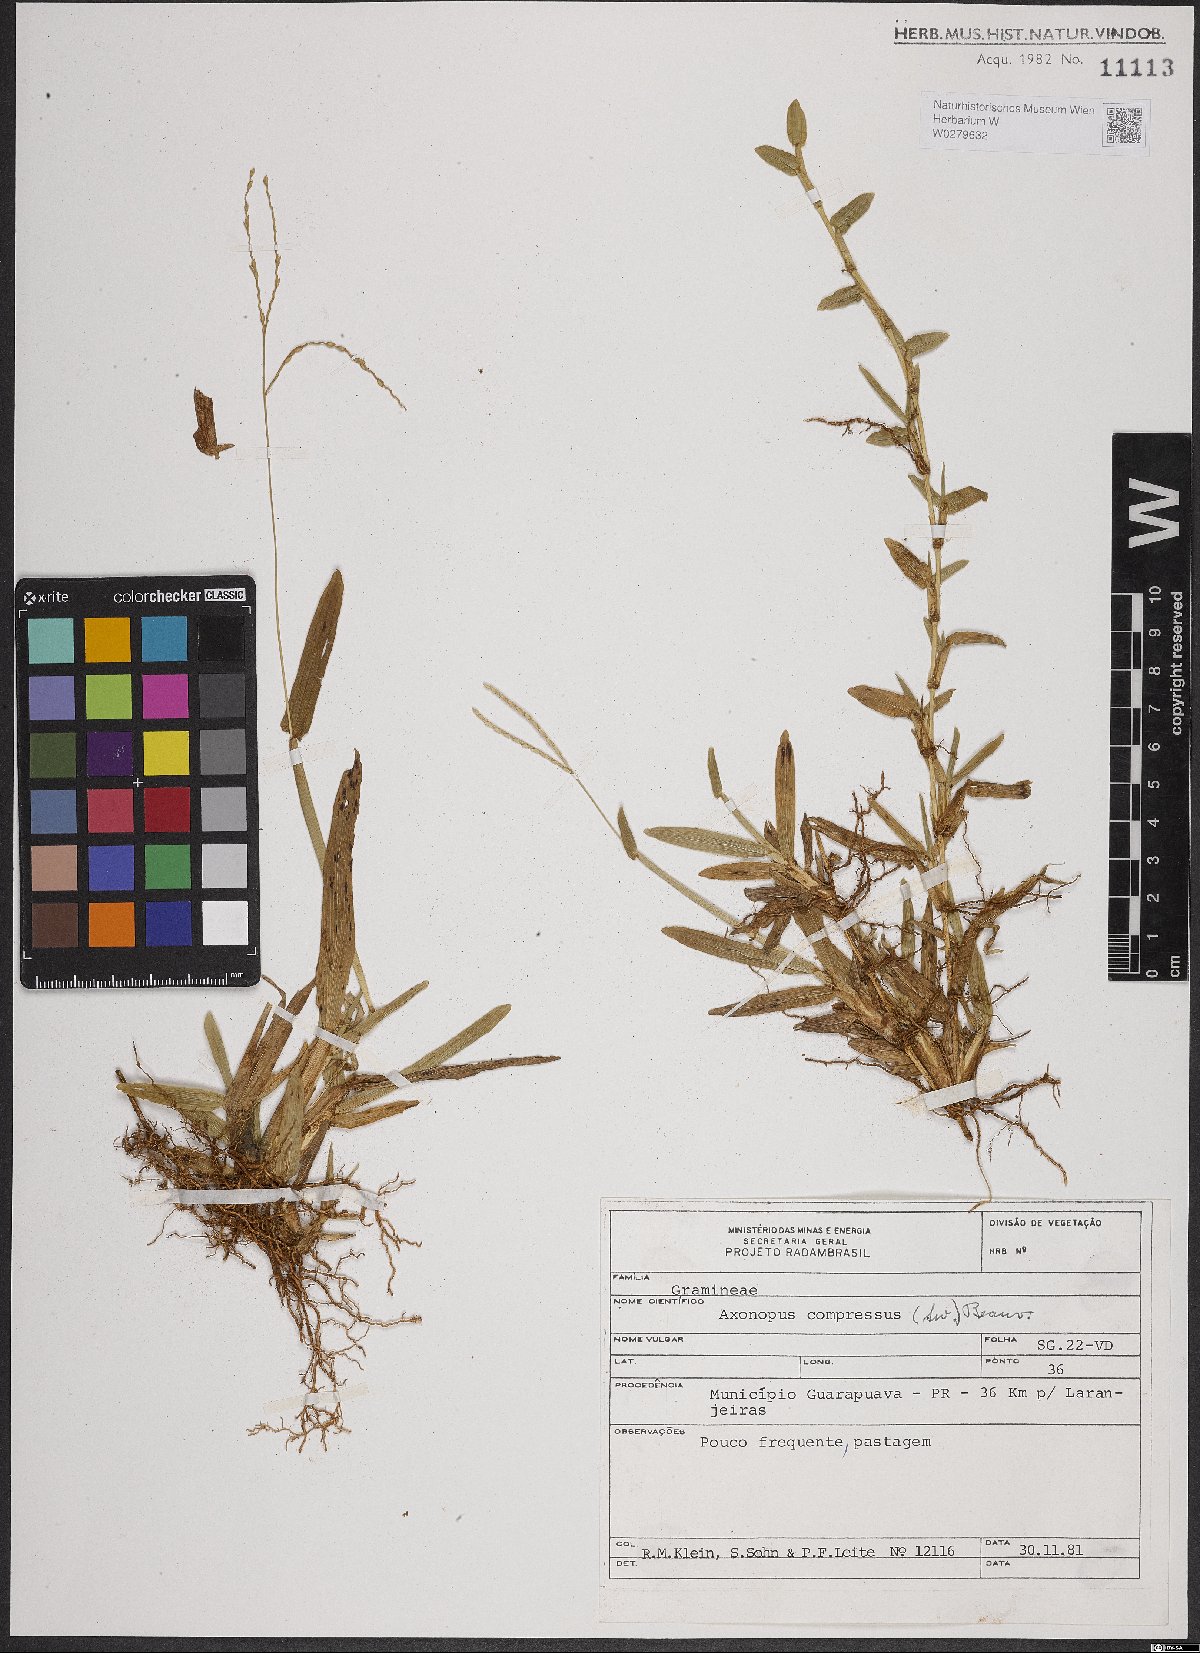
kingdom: Plantae
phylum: Tracheophyta
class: Liliopsida
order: Poales
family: Poaceae
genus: Axonopus
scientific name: Axonopus compressus
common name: American carpet grass
